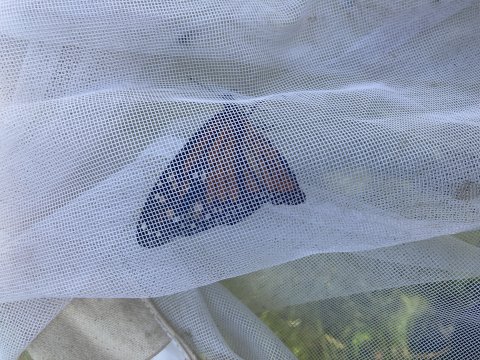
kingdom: Animalia
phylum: Arthropoda
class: Insecta
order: Lepidoptera
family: Nymphalidae
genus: Danaus
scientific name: Danaus plexippus
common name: Monarch
